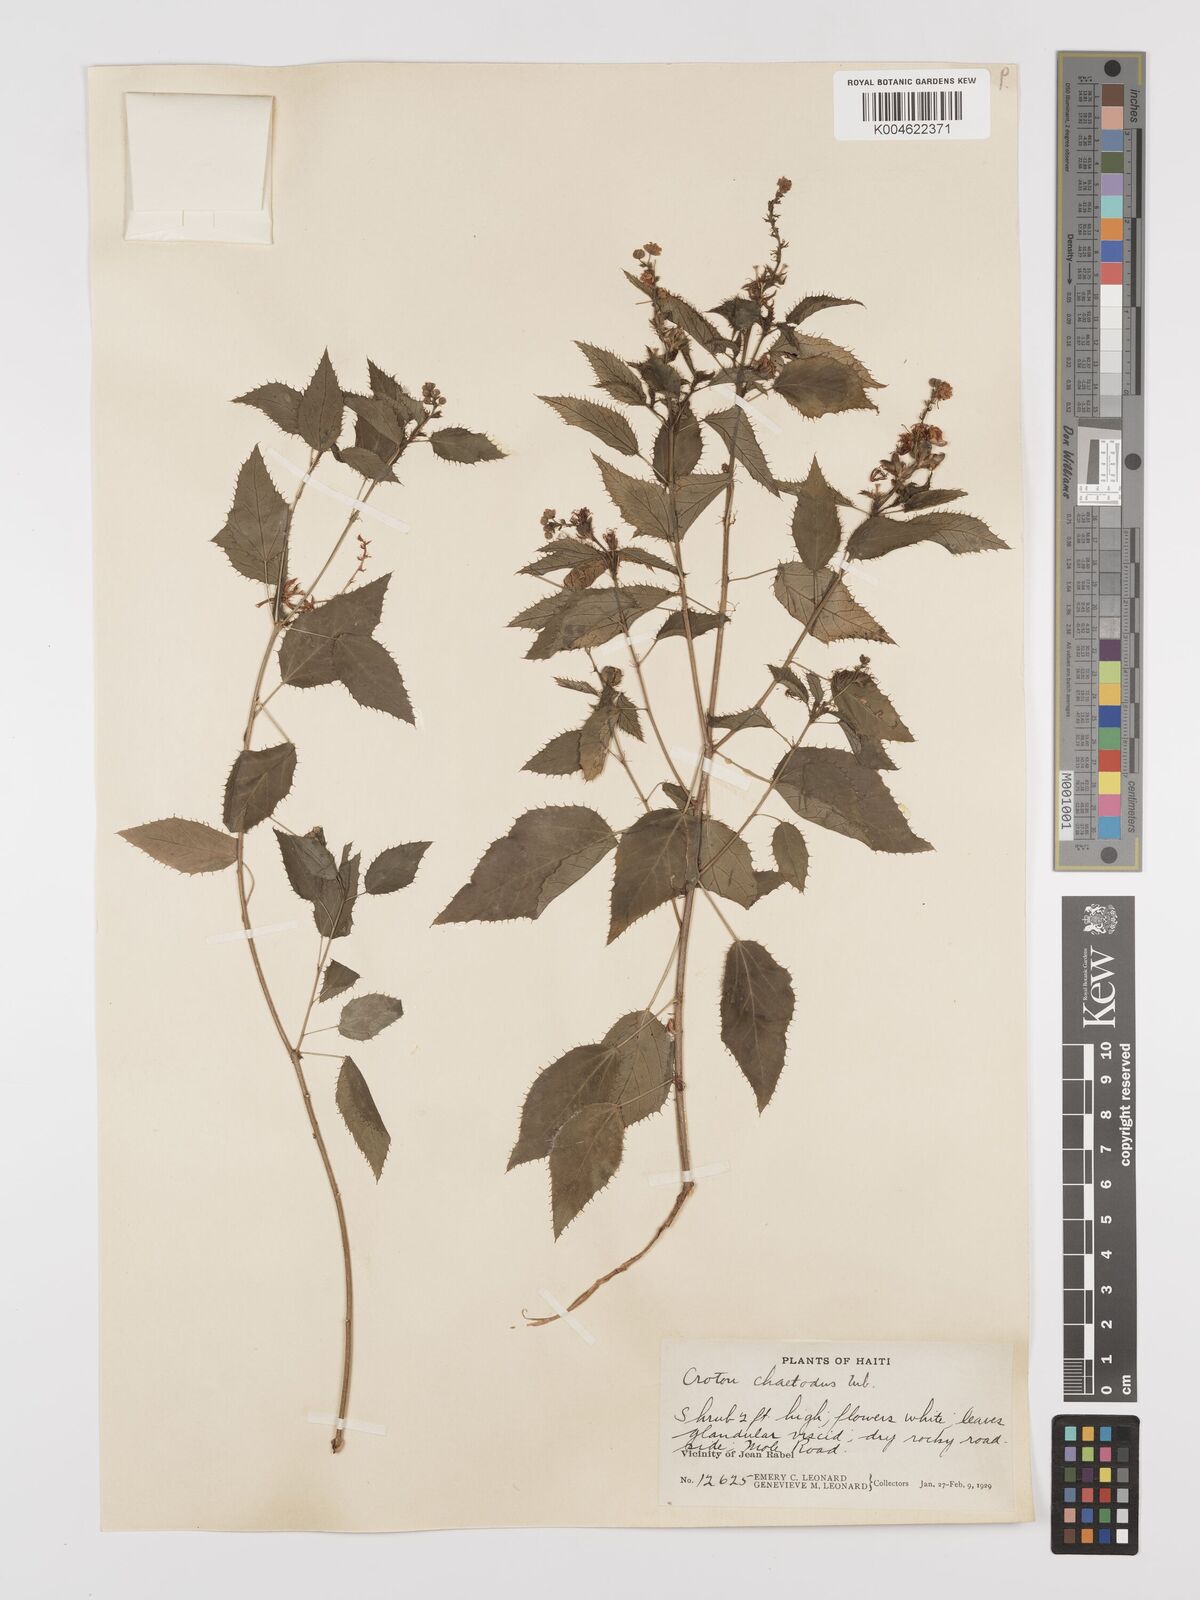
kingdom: Plantae
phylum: Tracheophyta
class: Magnoliopsida
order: Malpighiales
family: Euphorbiaceae
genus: Croton
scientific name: Croton ciliatoglandulifer
